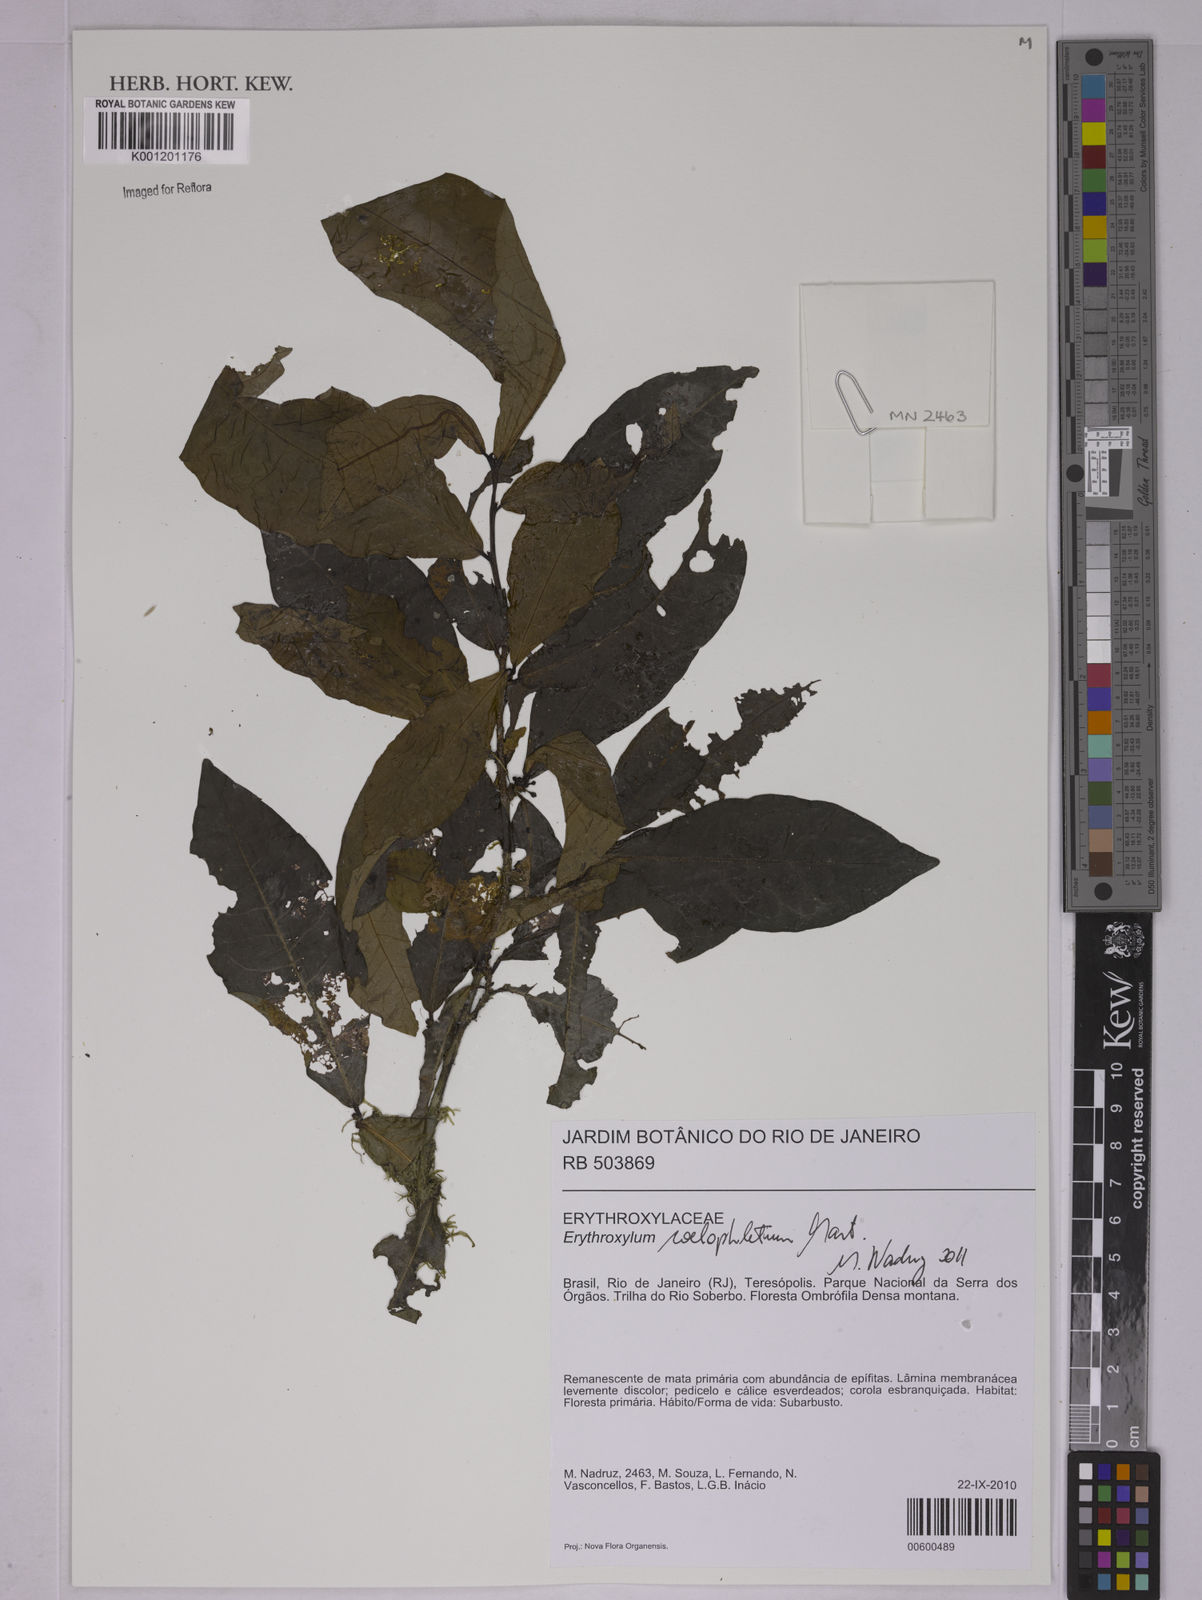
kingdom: Plantae
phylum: Tracheophyta
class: Magnoliopsida
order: Malpighiales
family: Erythroxylaceae
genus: Erythroxylum
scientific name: Erythroxylum coelophlebium
